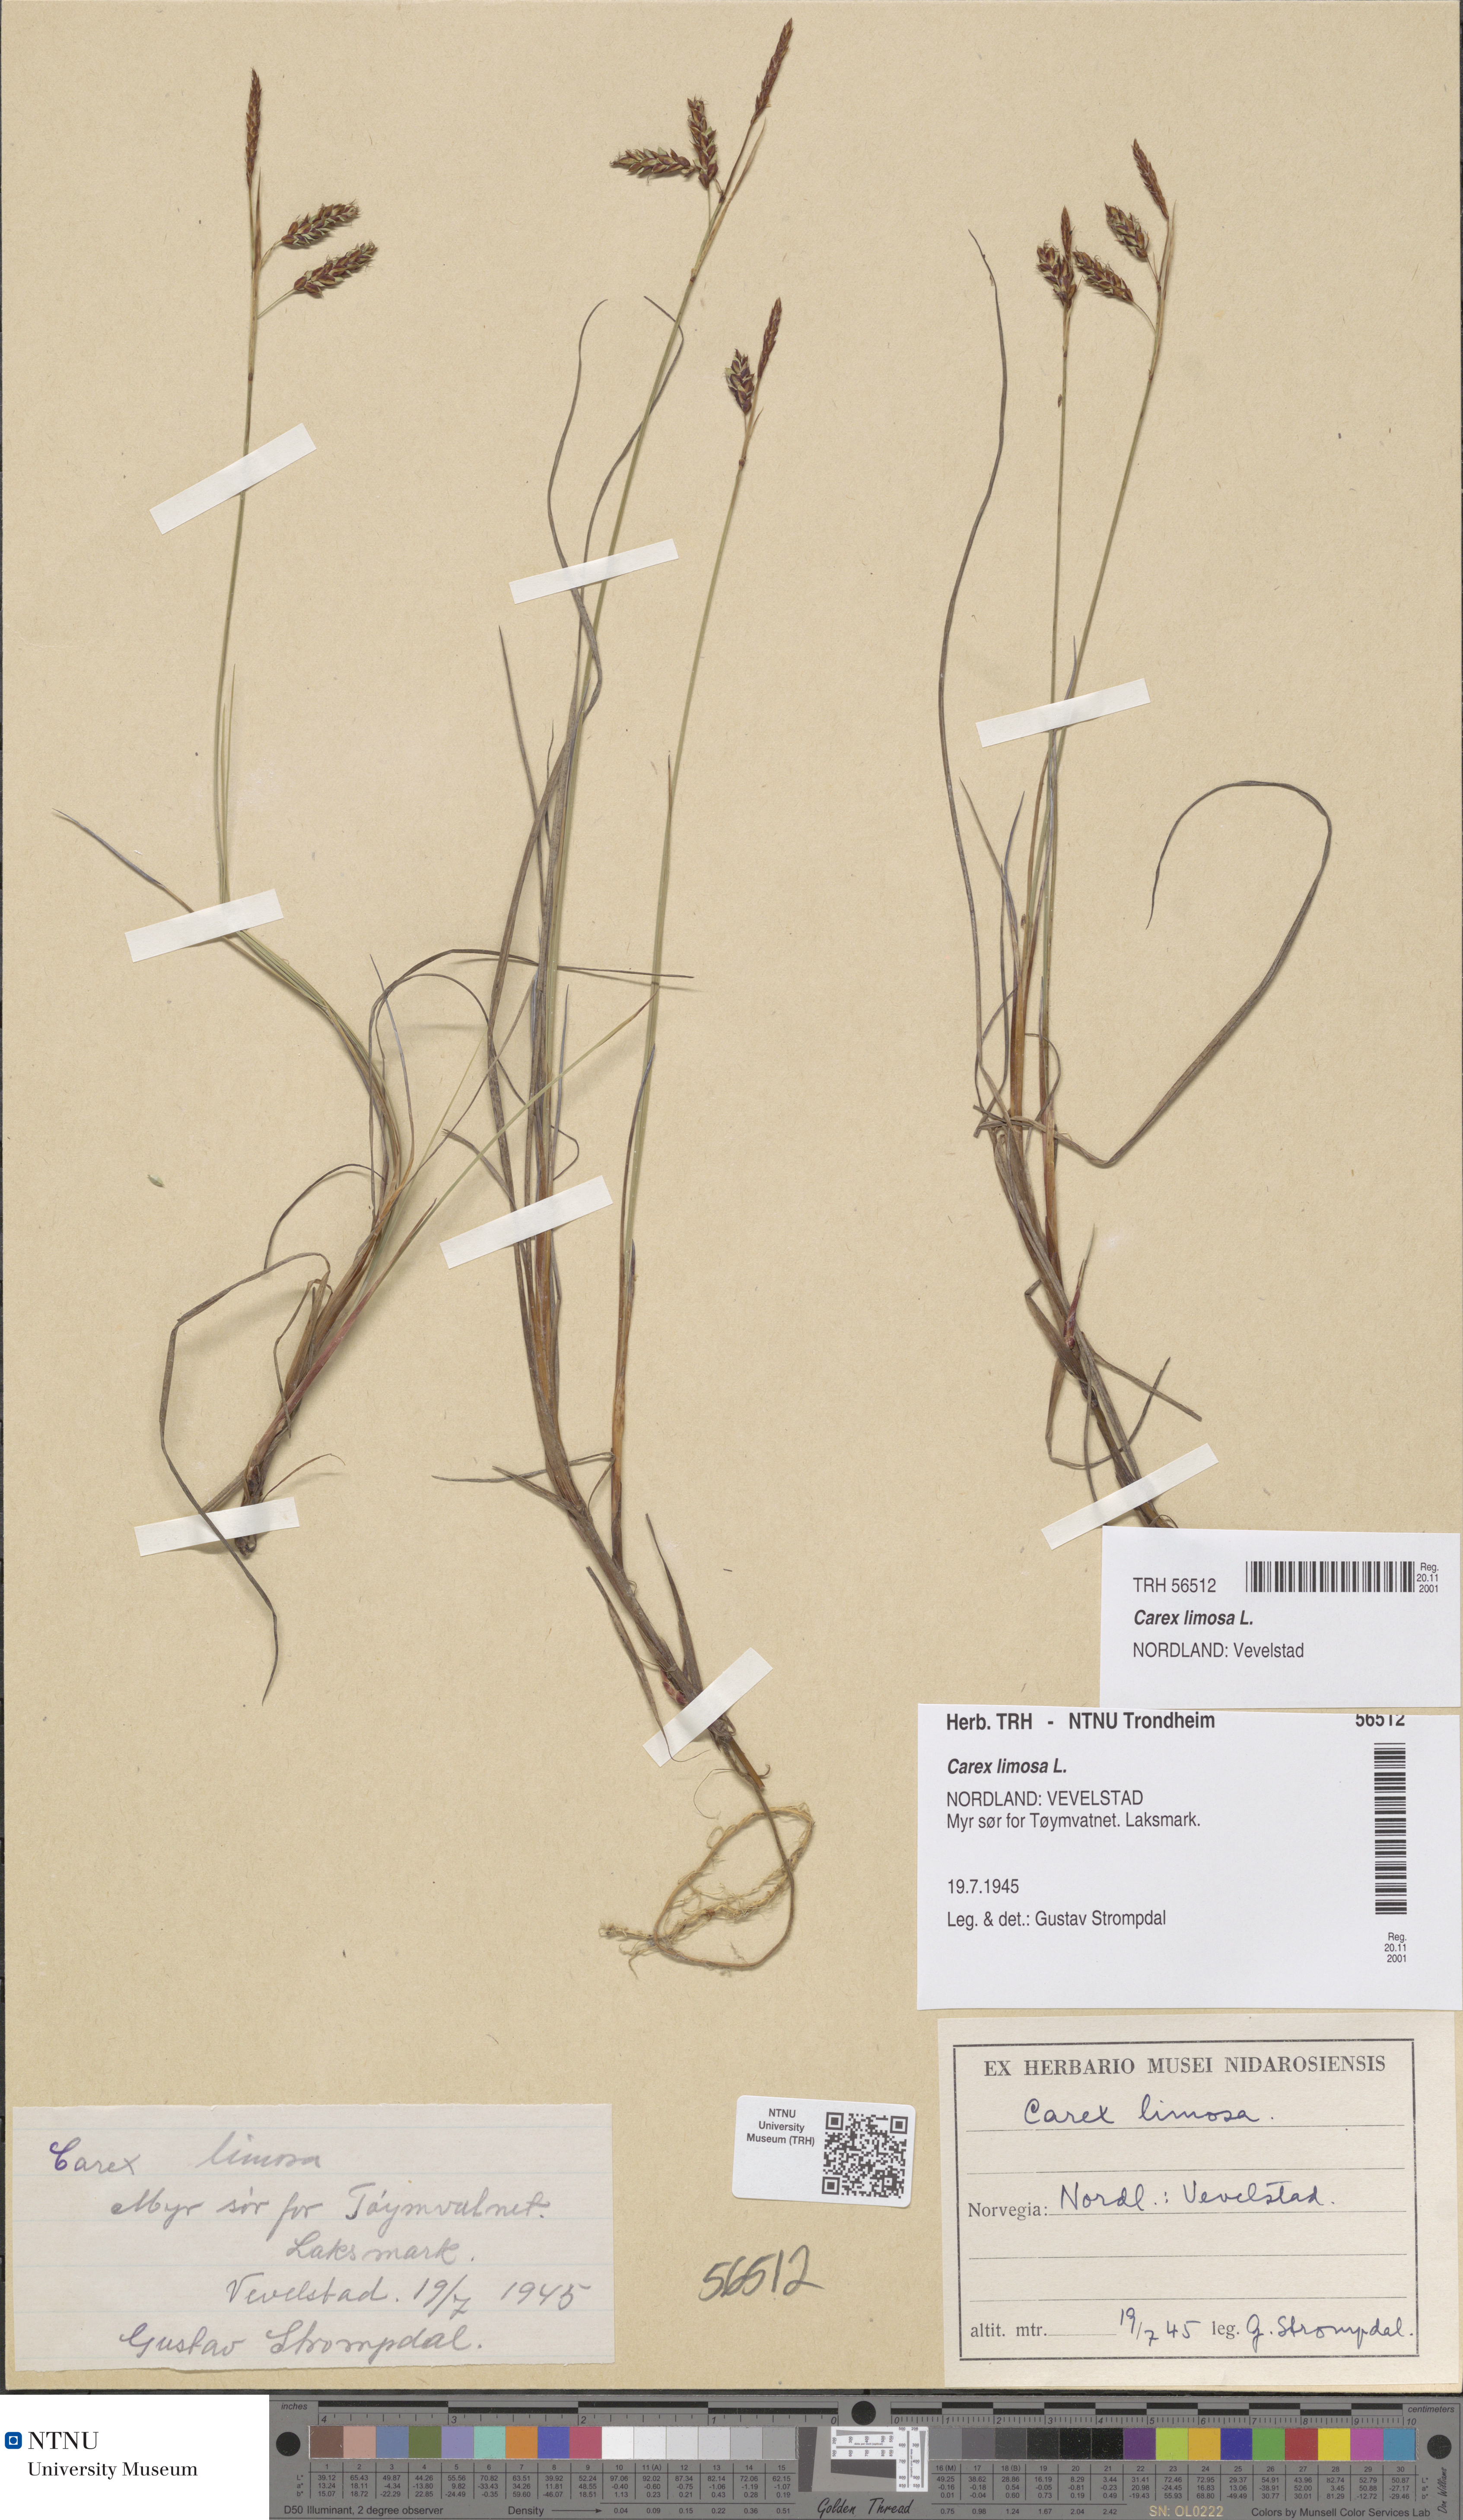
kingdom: Plantae
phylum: Tracheophyta
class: Liliopsida
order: Poales
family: Cyperaceae
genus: Carex
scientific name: Carex limosa
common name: Bog sedge
